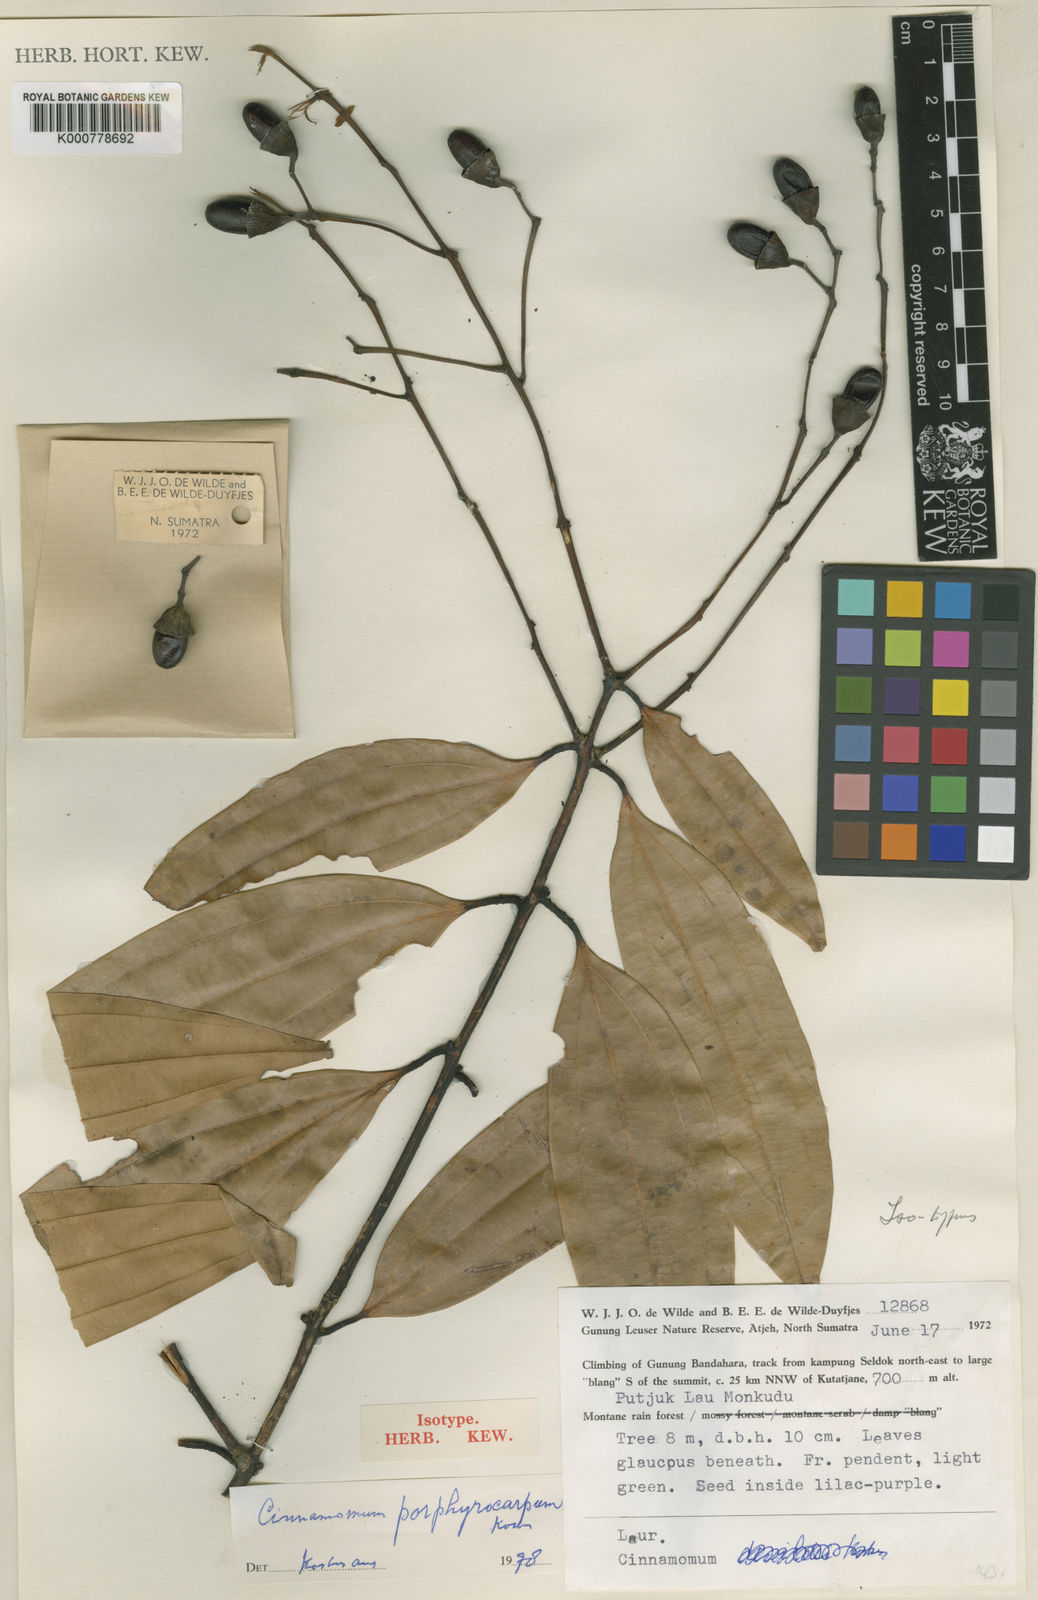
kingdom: Plantae
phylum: Tracheophyta
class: Magnoliopsida
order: Laurales
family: Lauraceae
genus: Cinnamomum
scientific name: Cinnamomum
